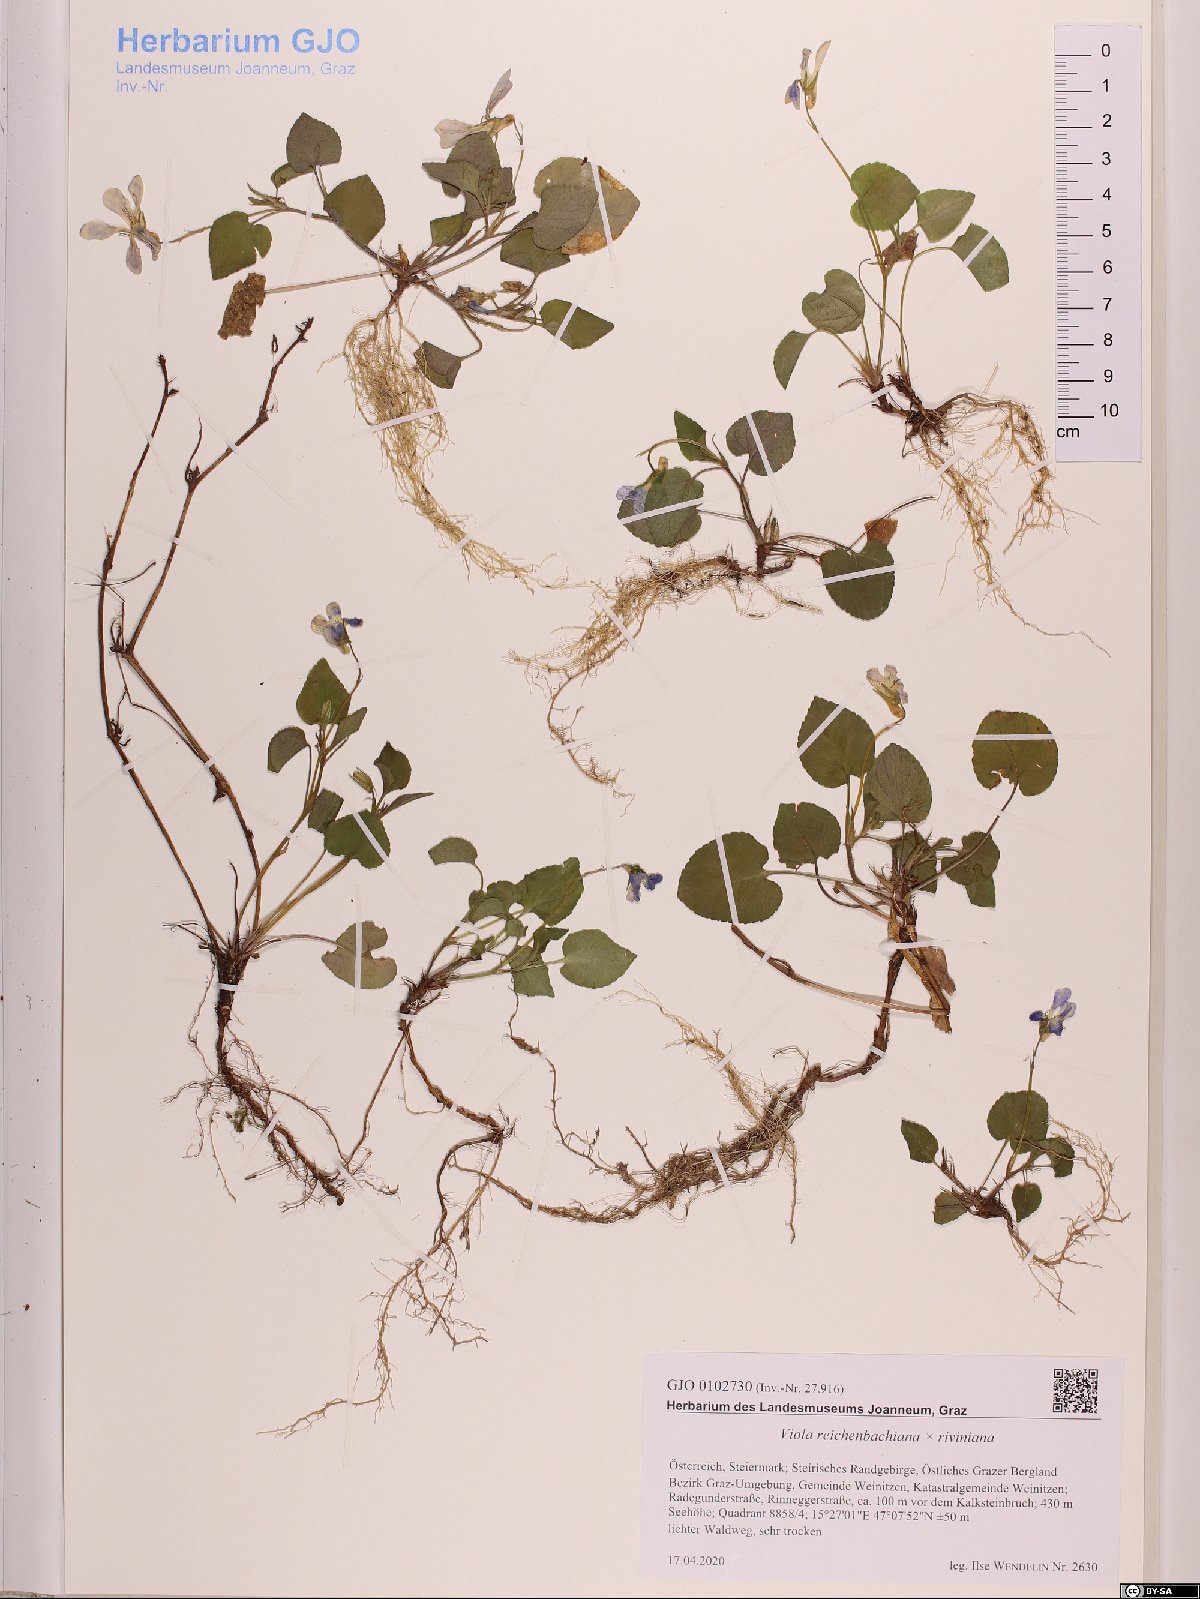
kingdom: Plantae
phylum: Tracheophyta
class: Magnoliopsida
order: Malpighiales
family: Violaceae
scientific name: Violaceae
